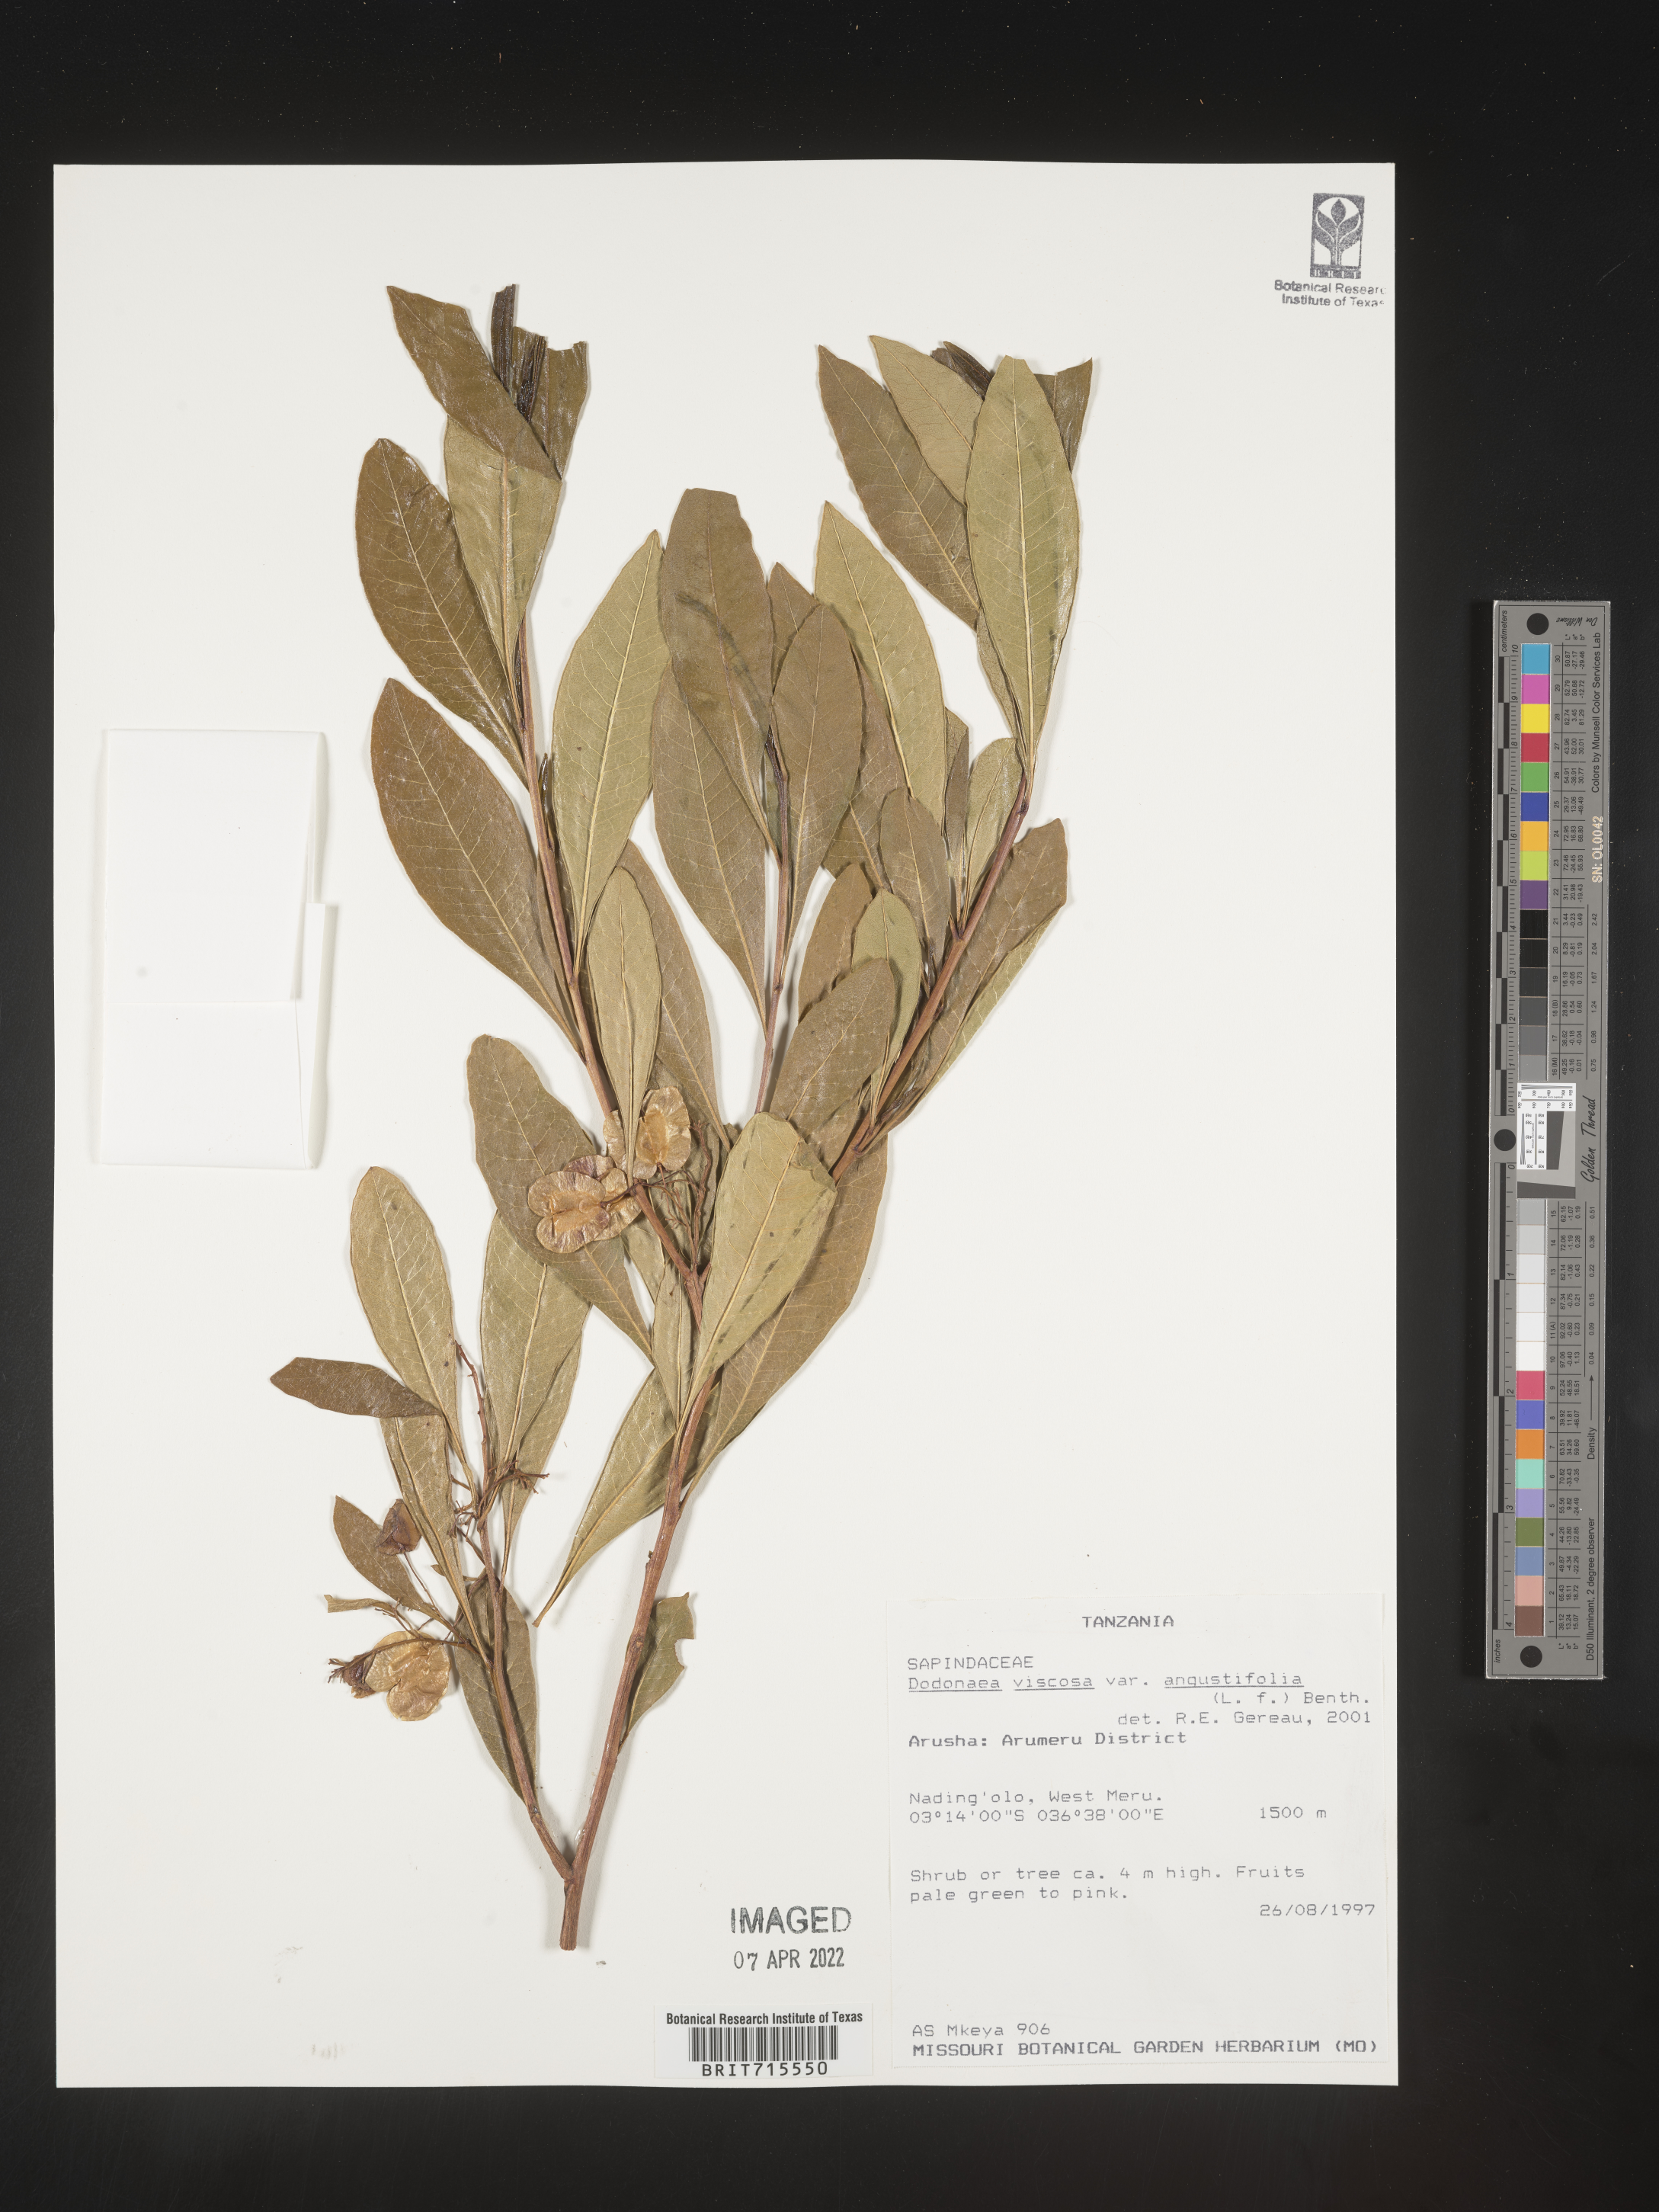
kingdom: Plantae
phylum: Tracheophyta
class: Magnoliopsida
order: Sapindales
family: Sapindaceae
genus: Dodonaea
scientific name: Dodonaea viscosa
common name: Hopbush
